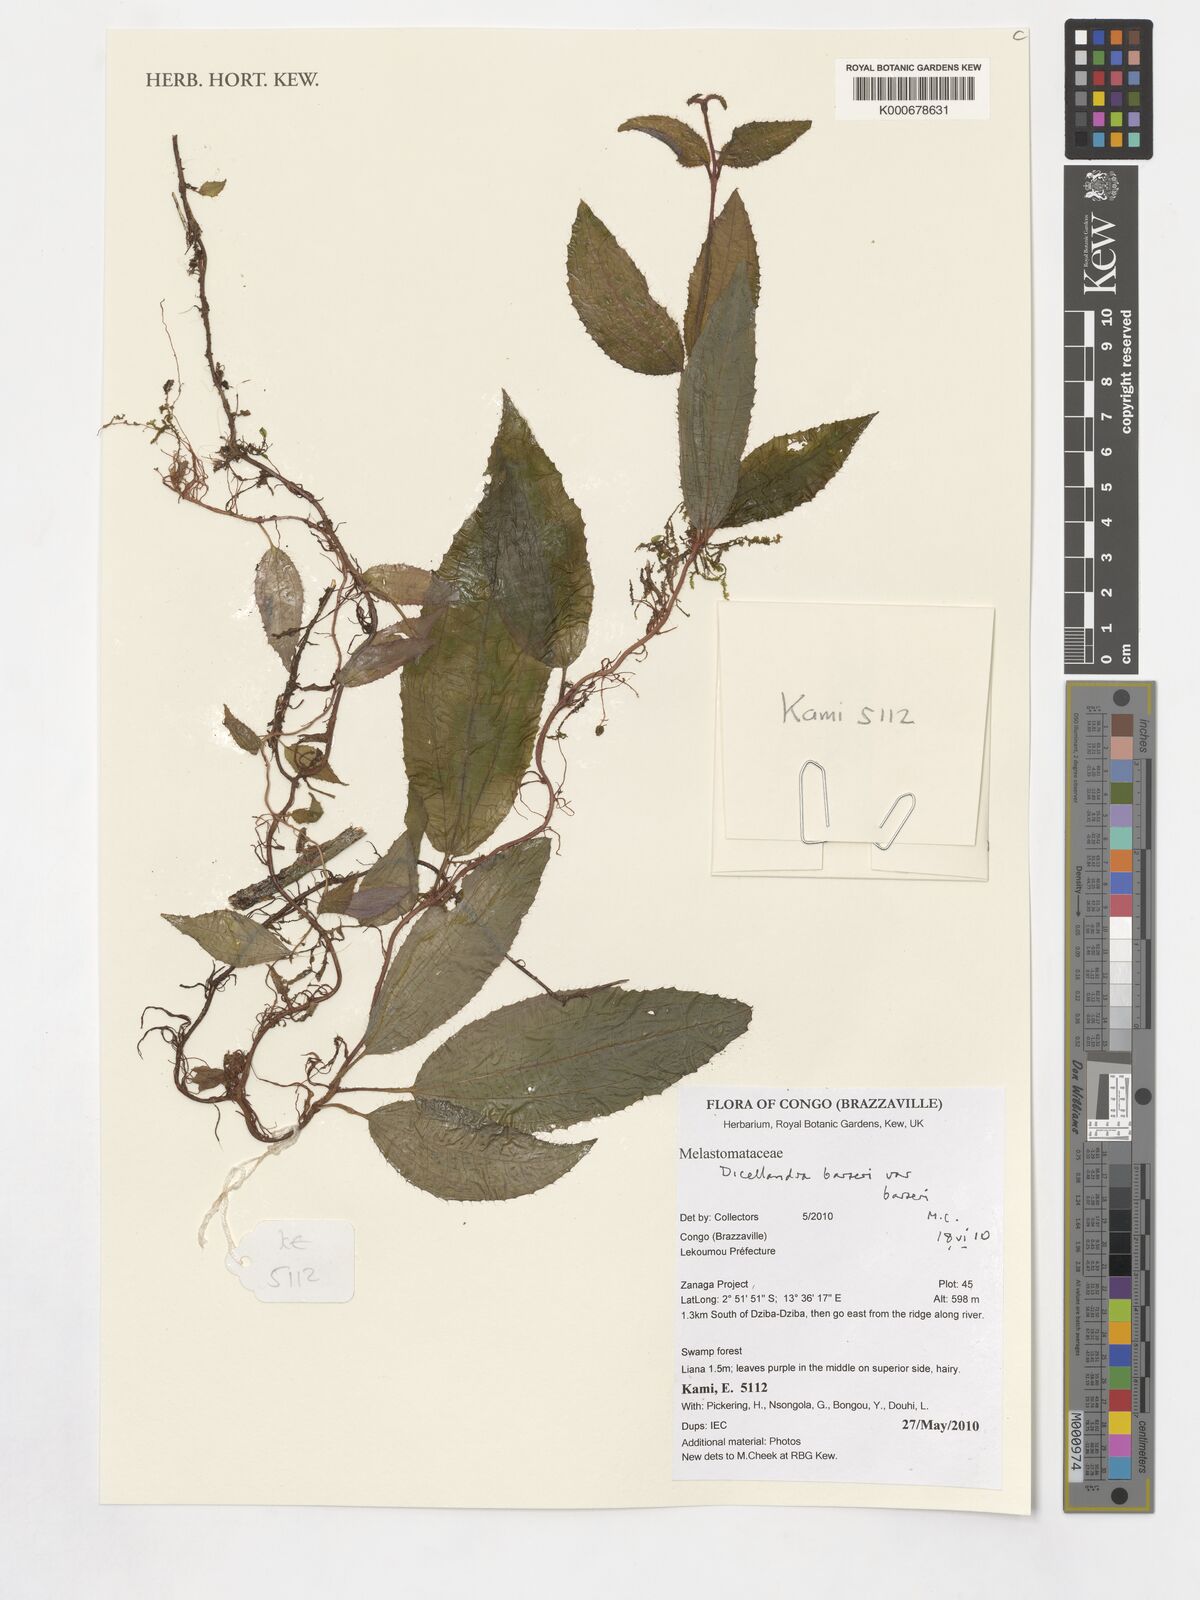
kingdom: Plantae
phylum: Tracheophyta
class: Magnoliopsida
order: Myrtales
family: Melastomataceae
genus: Dicellandra
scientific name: Dicellandra barteri
